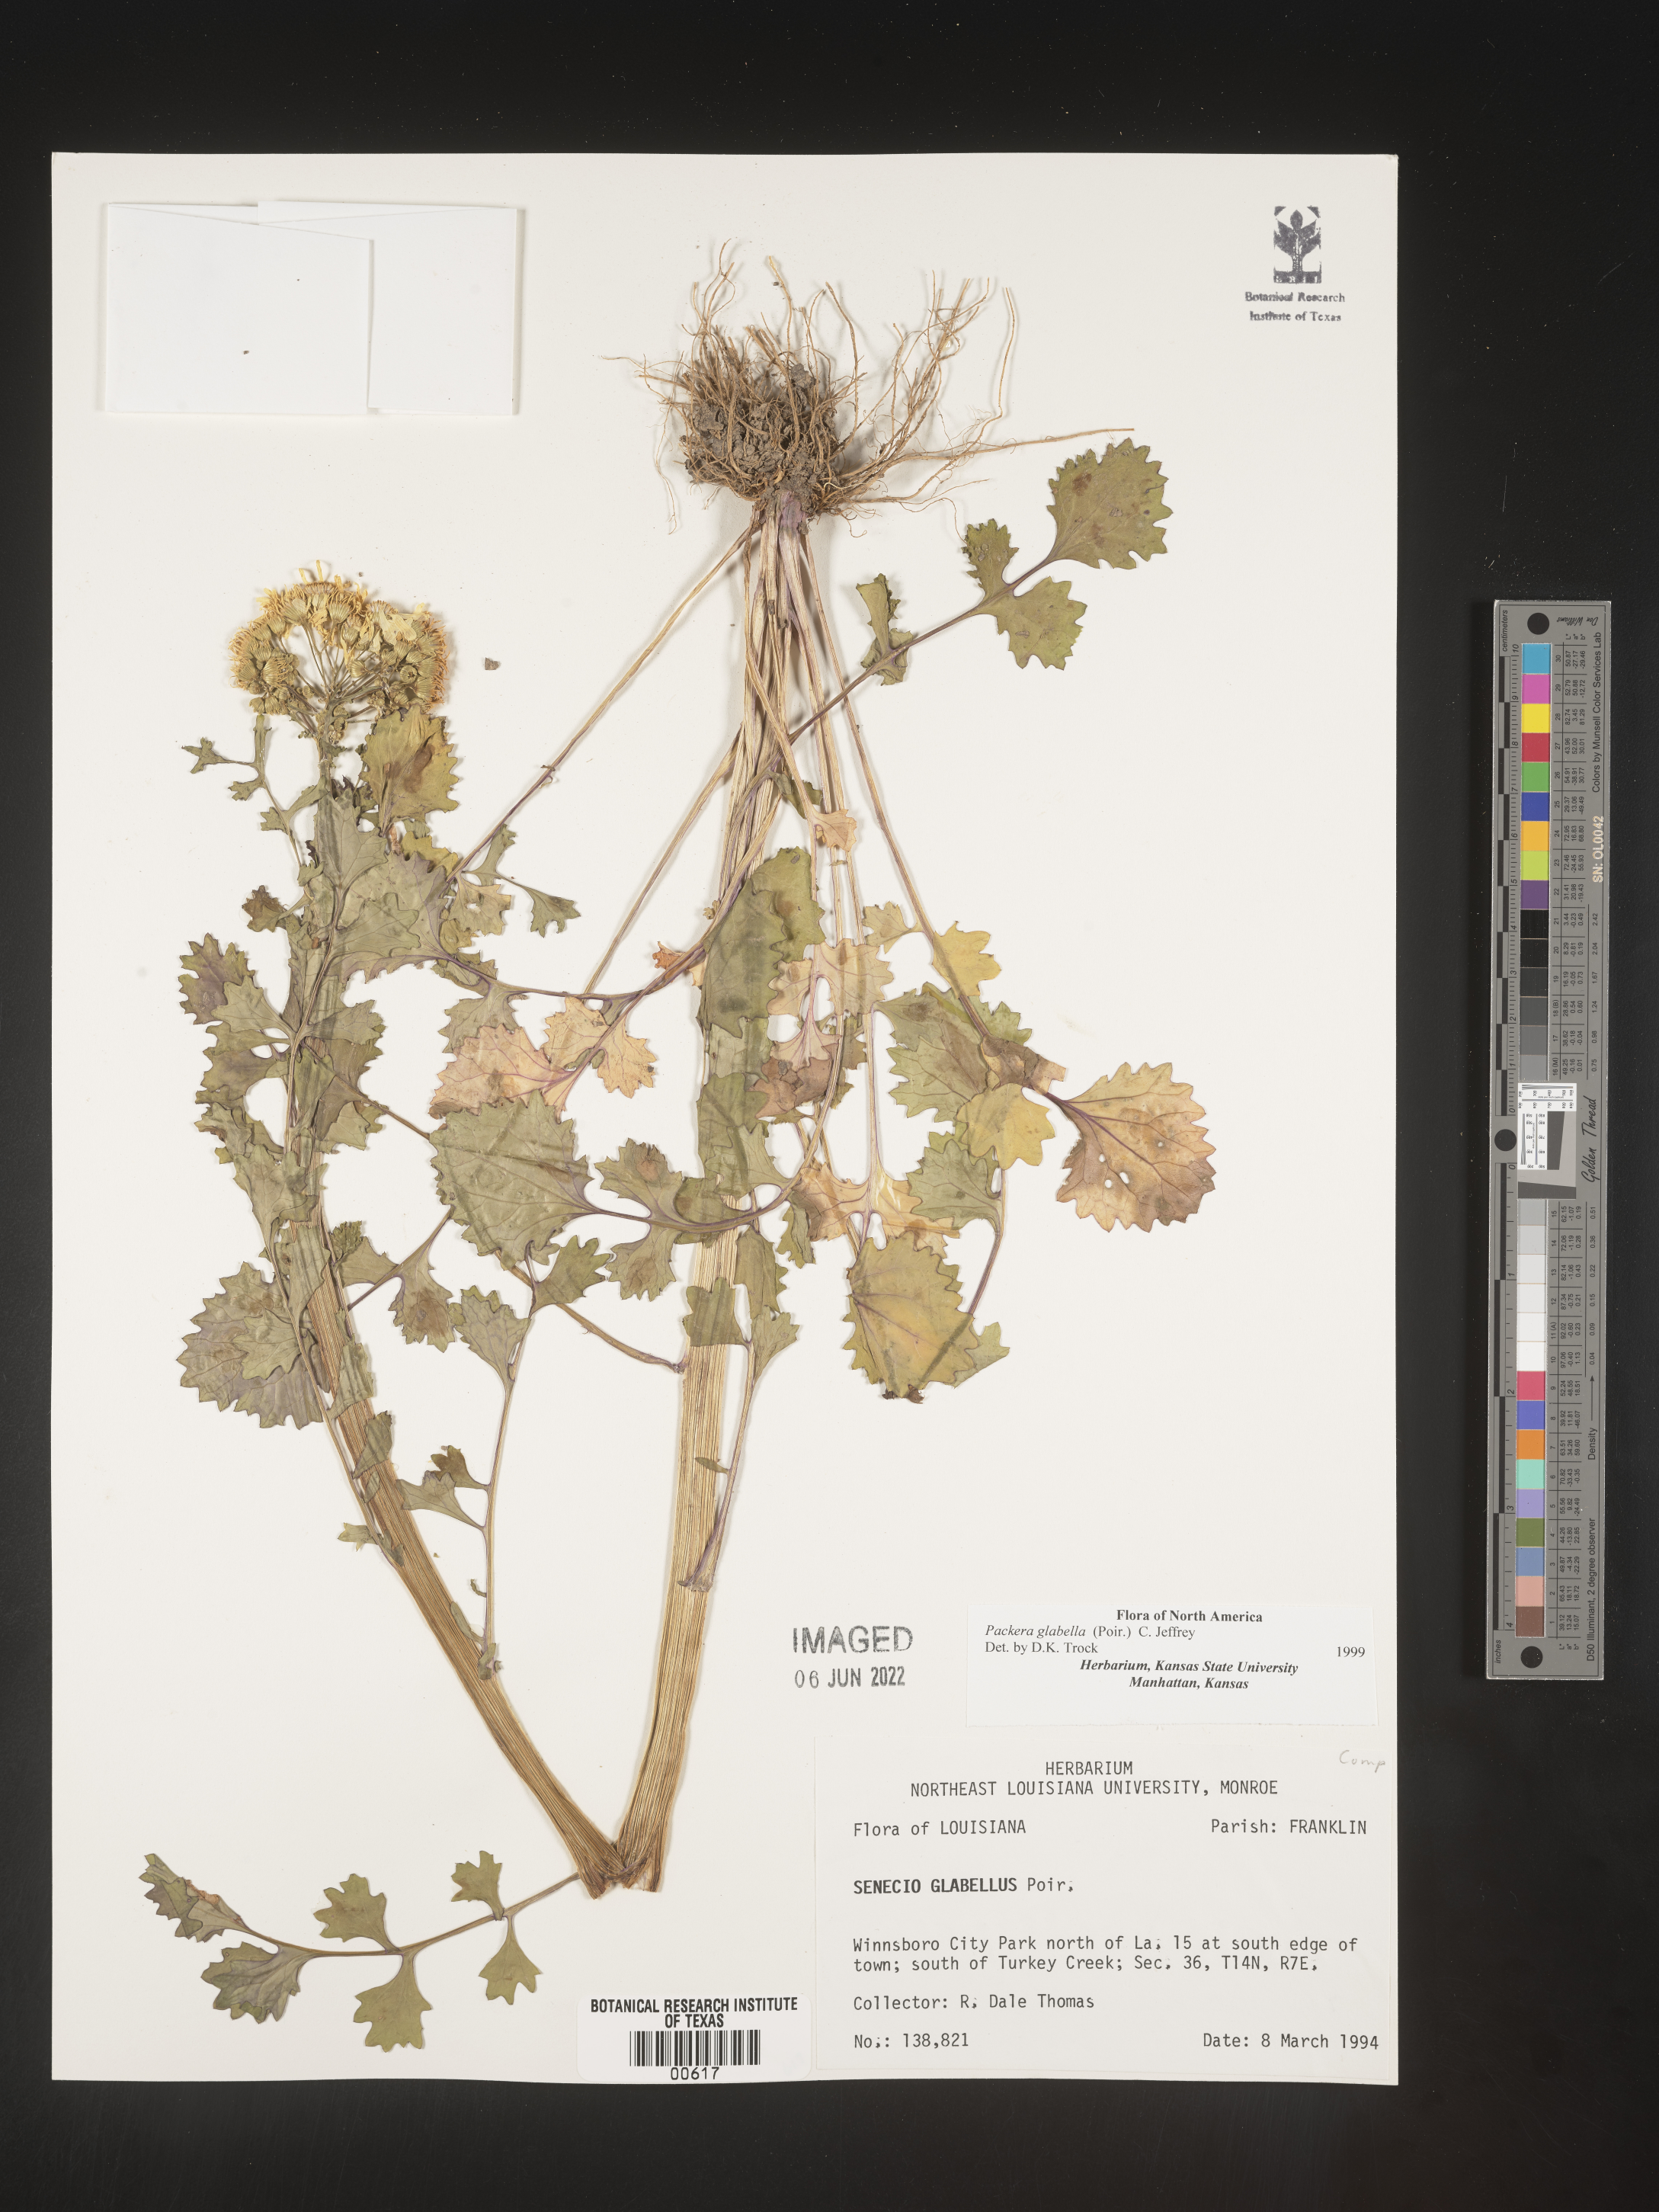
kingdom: Plantae
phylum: Tracheophyta
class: Magnoliopsida
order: Asterales
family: Asteraceae
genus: Packera
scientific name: Packera glabella
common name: Butterweed
